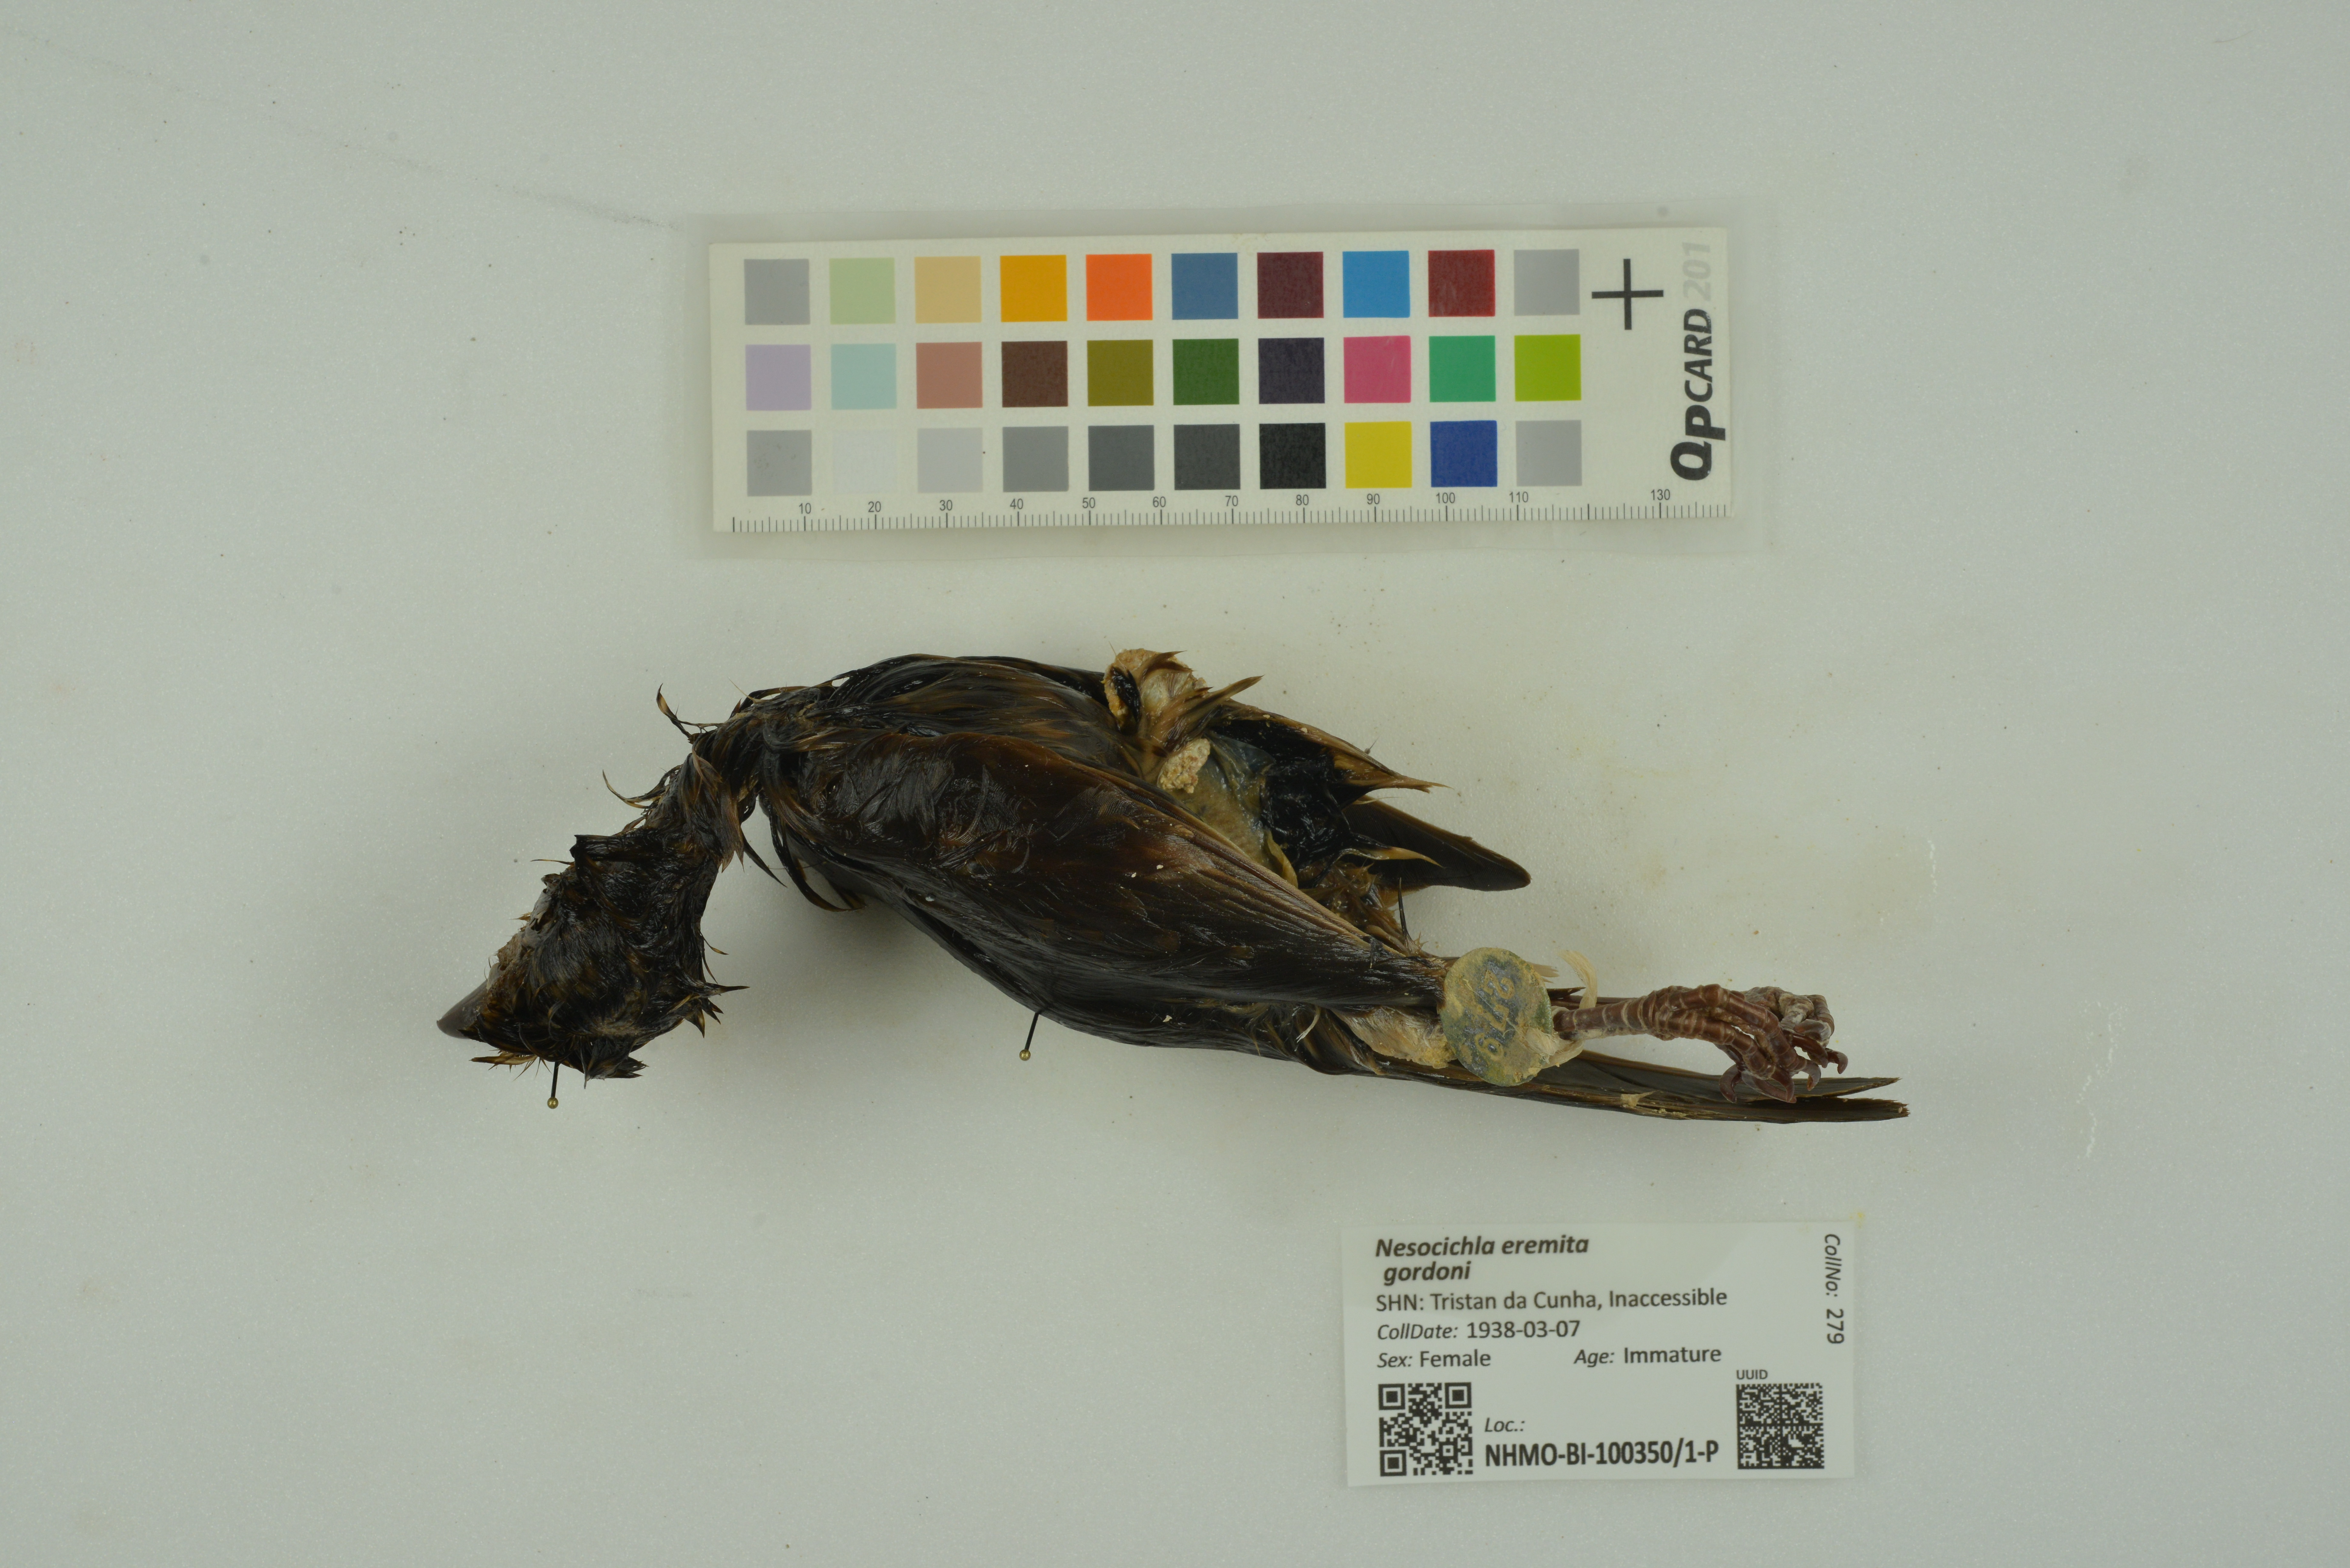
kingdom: Animalia
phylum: Chordata
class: Aves
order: Passeriformes
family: Turdidae
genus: Nesocichla
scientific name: Nesocichla eremita
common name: Tristan thrush
